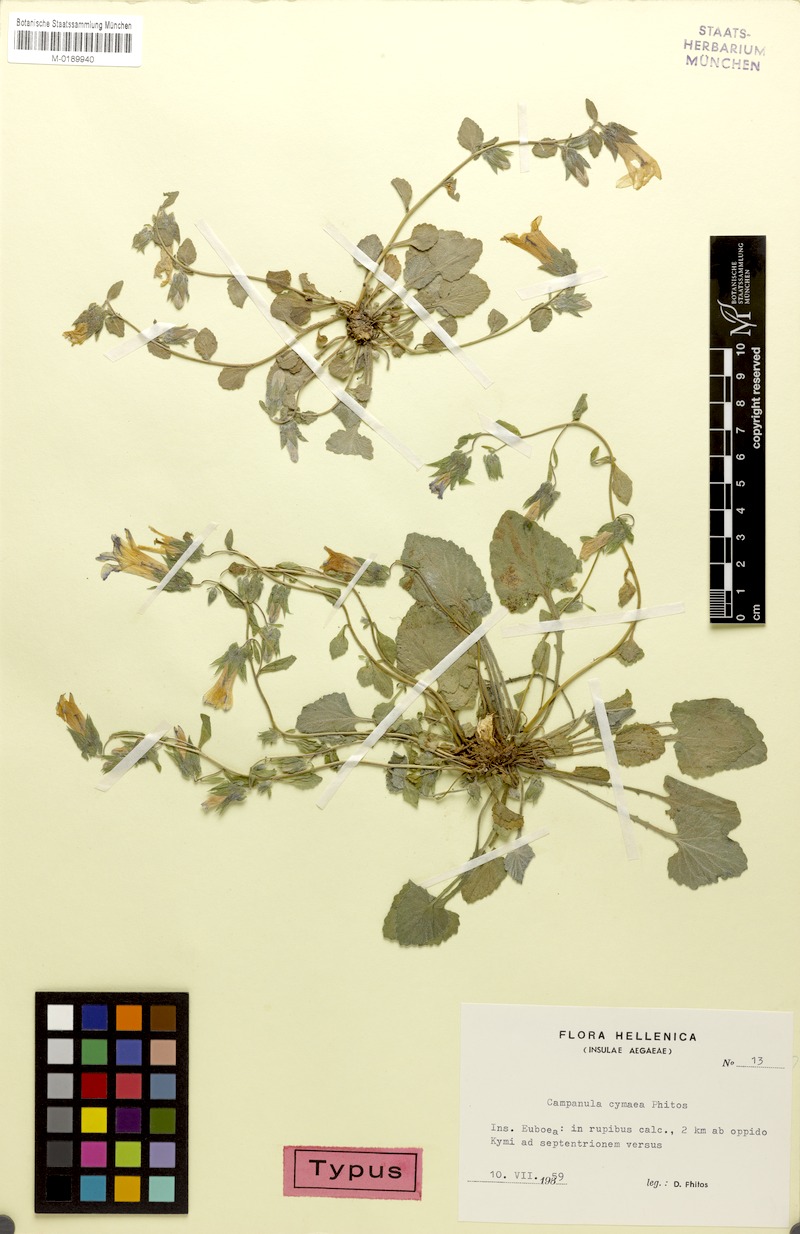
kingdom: Plantae
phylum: Tracheophyta
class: Magnoliopsida
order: Asterales
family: Campanulaceae
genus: Campanula
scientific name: Campanula cymaea
